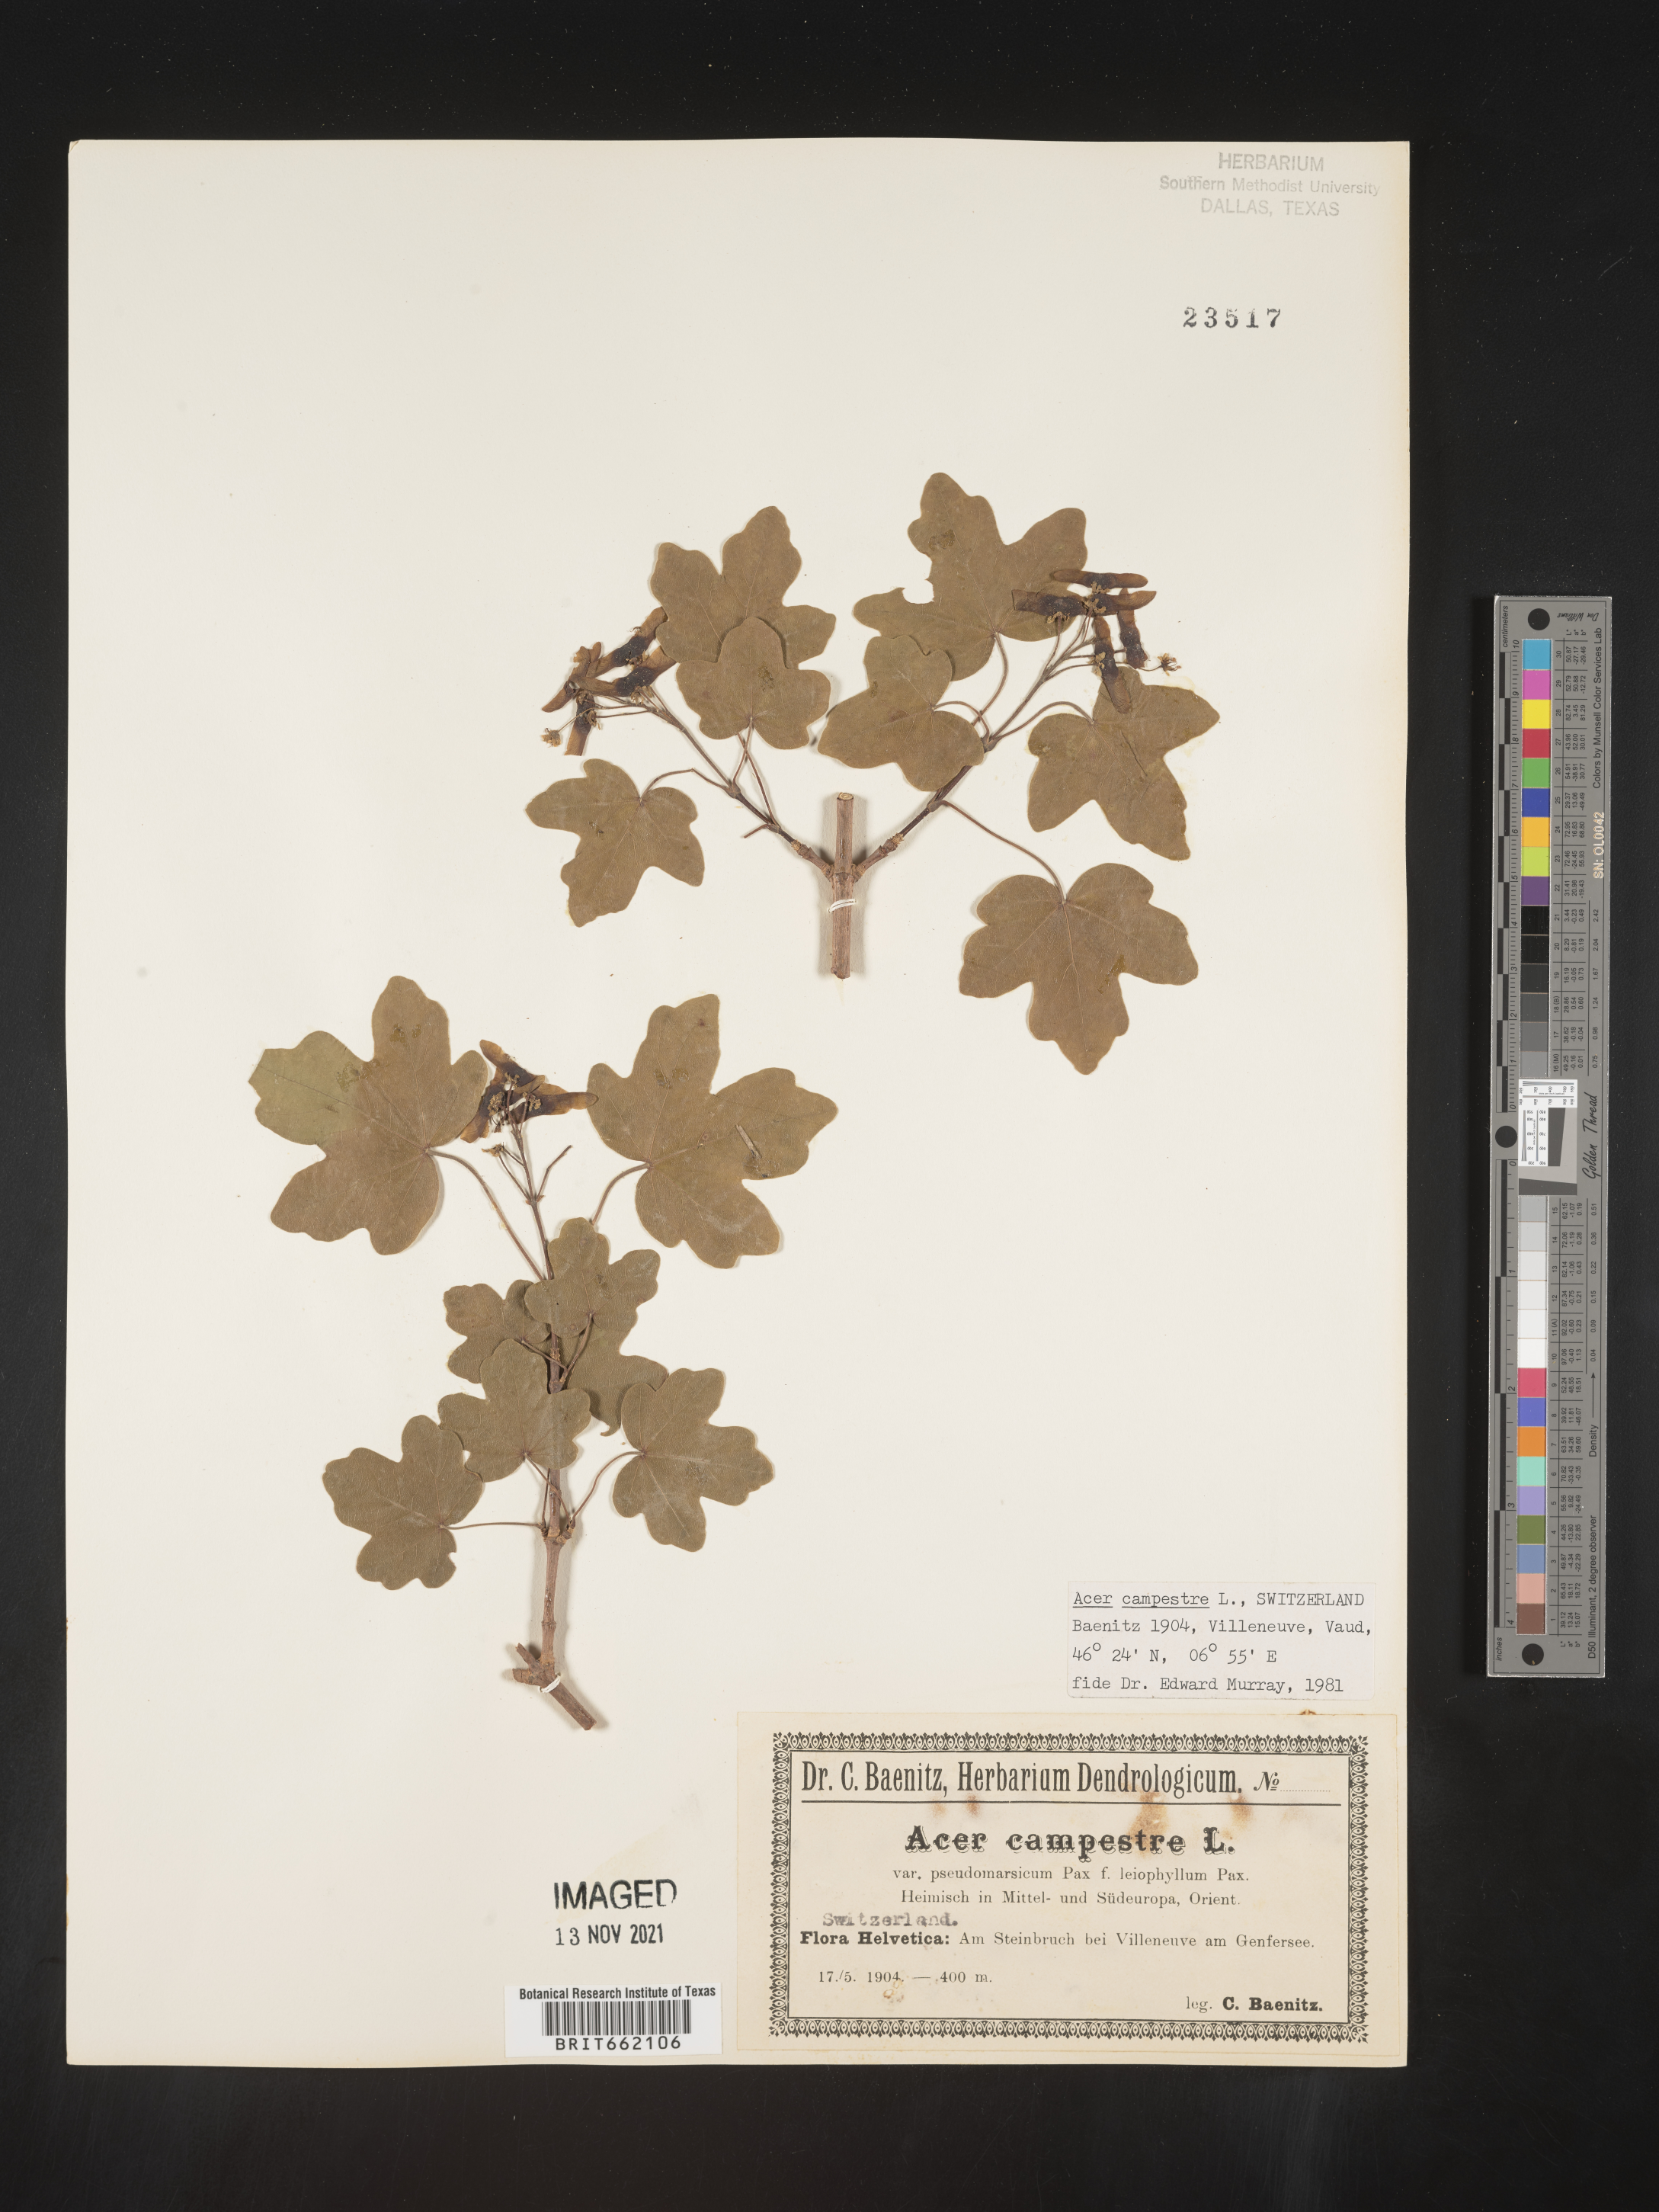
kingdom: Plantae
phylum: Tracheophyta
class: Magnoliopsida
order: Sapindales
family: Sapindaceae
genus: Acer
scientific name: Acer
